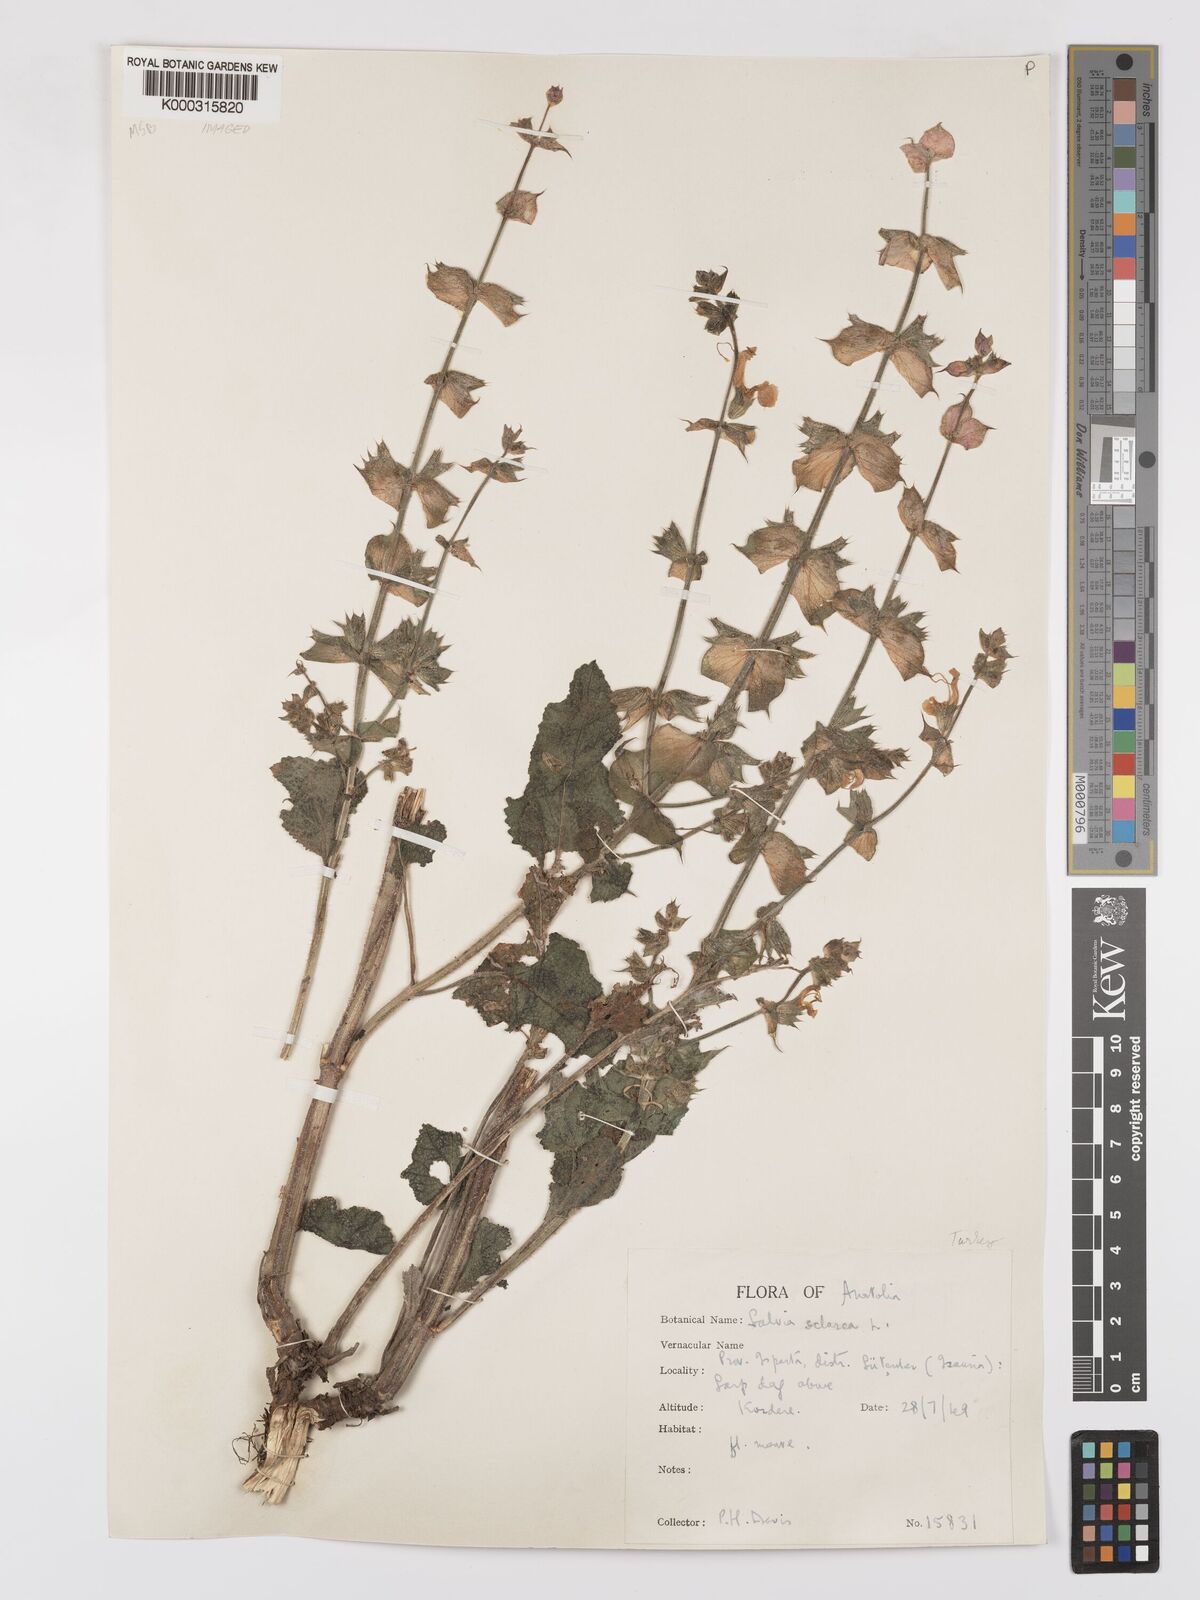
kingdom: Plantae
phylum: Tracheophyta
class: Magnoliopsida
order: Lamiales
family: Lamiaceae
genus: Salvia
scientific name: Salvia sclarea
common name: Clary
